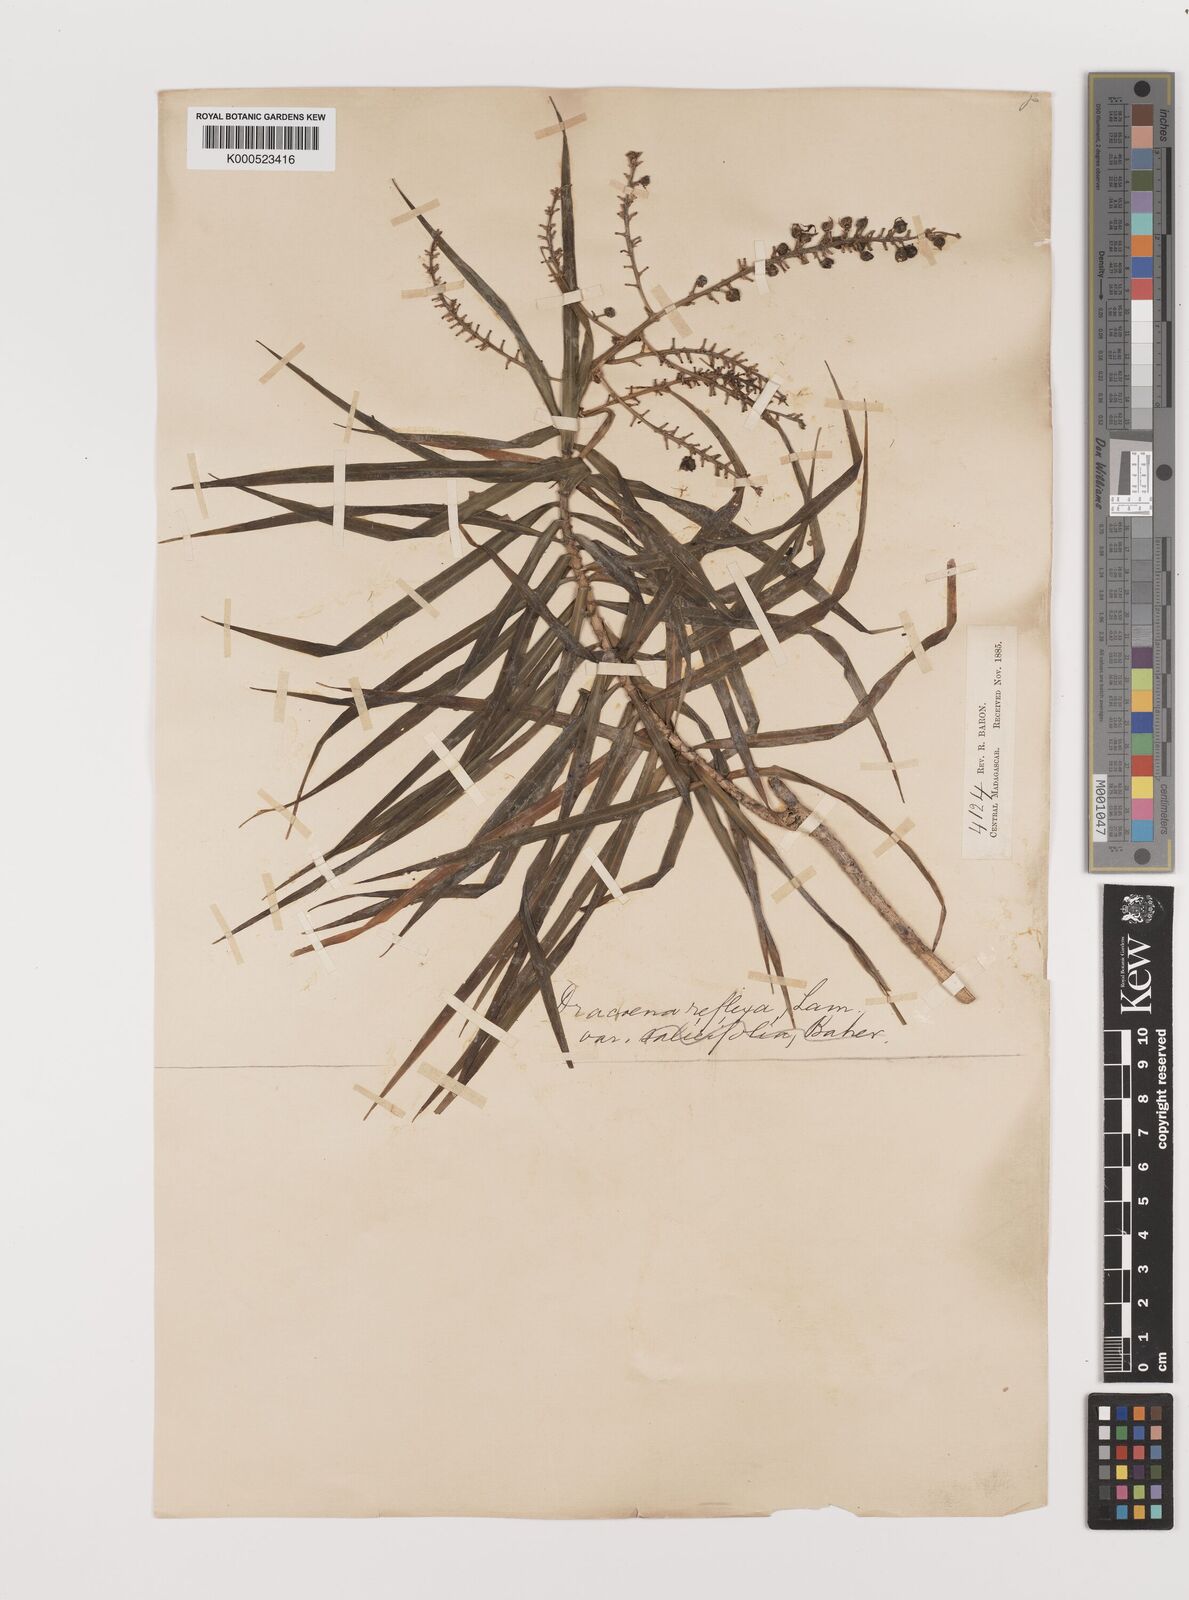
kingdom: Plantae
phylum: Tracheophyta
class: Liliopsida
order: Asparagales
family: Asparagaceae
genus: Dracaena
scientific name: Dracaena reflexa
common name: Song-of-india
